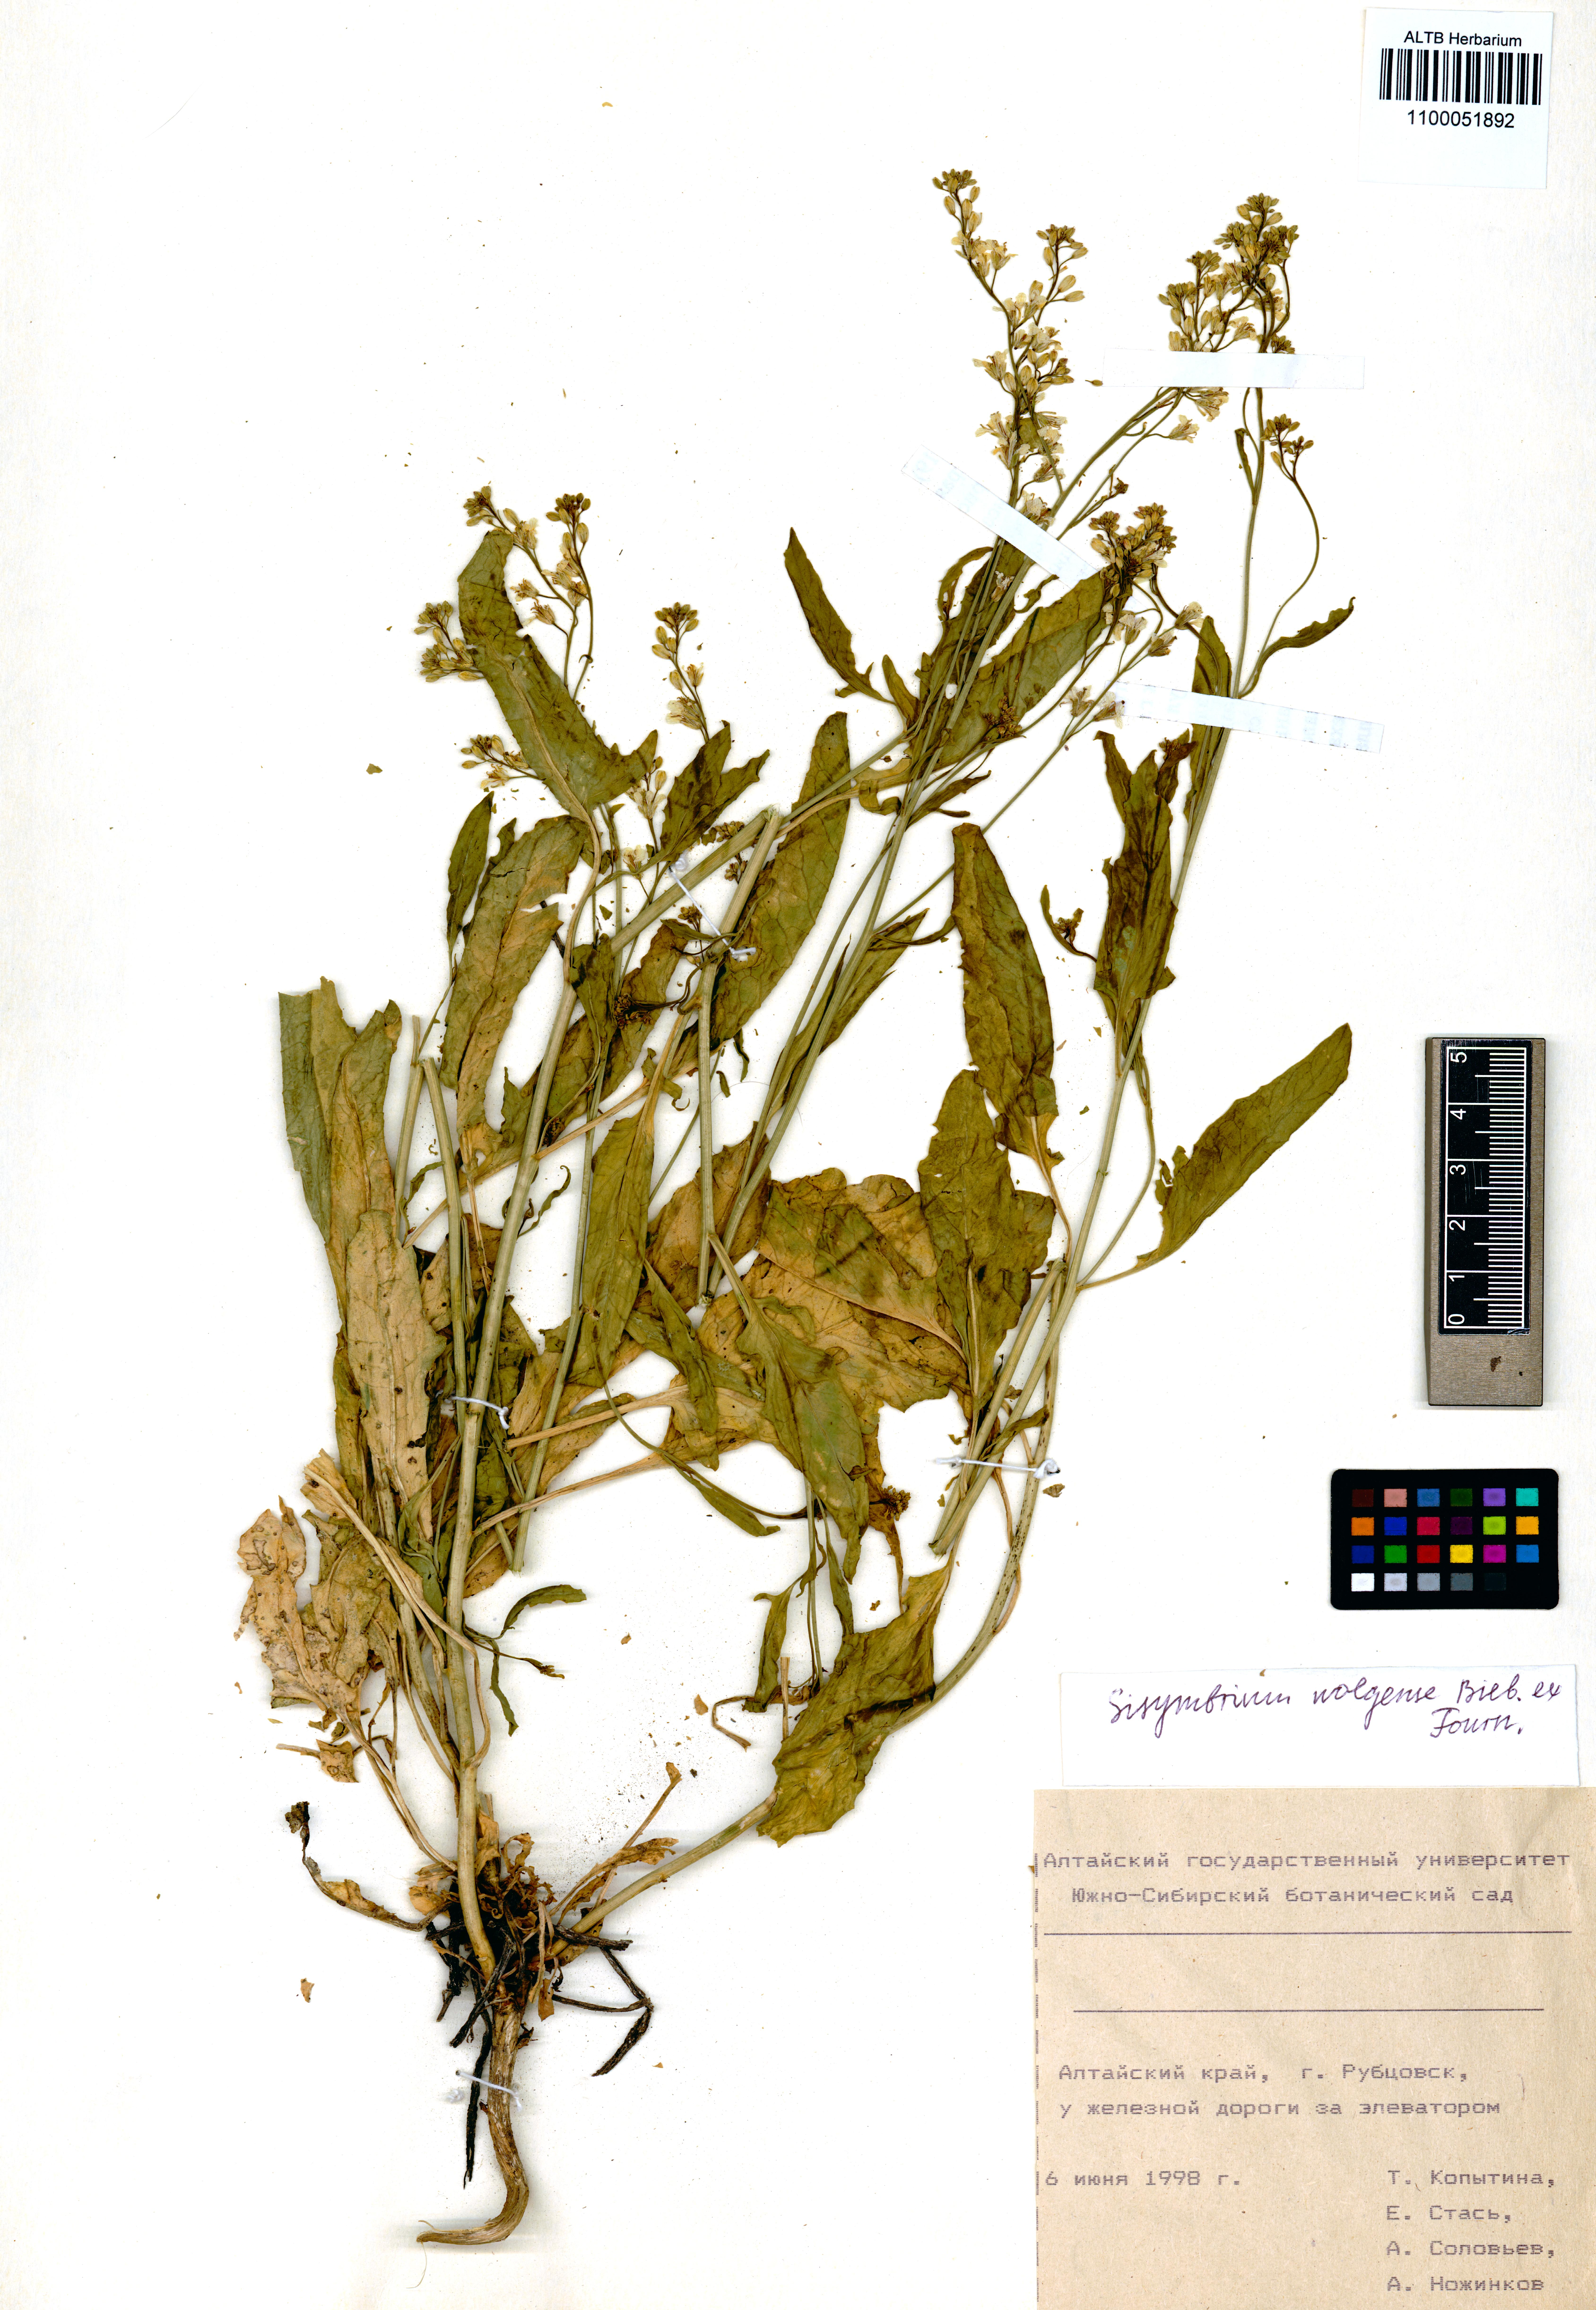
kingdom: Plantae
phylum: Tracheophyta
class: Magnoliopsida
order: Brassicales
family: Brassicaceae
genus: Sisymbrium
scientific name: Sisymbrium volgense
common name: Russian mustard
